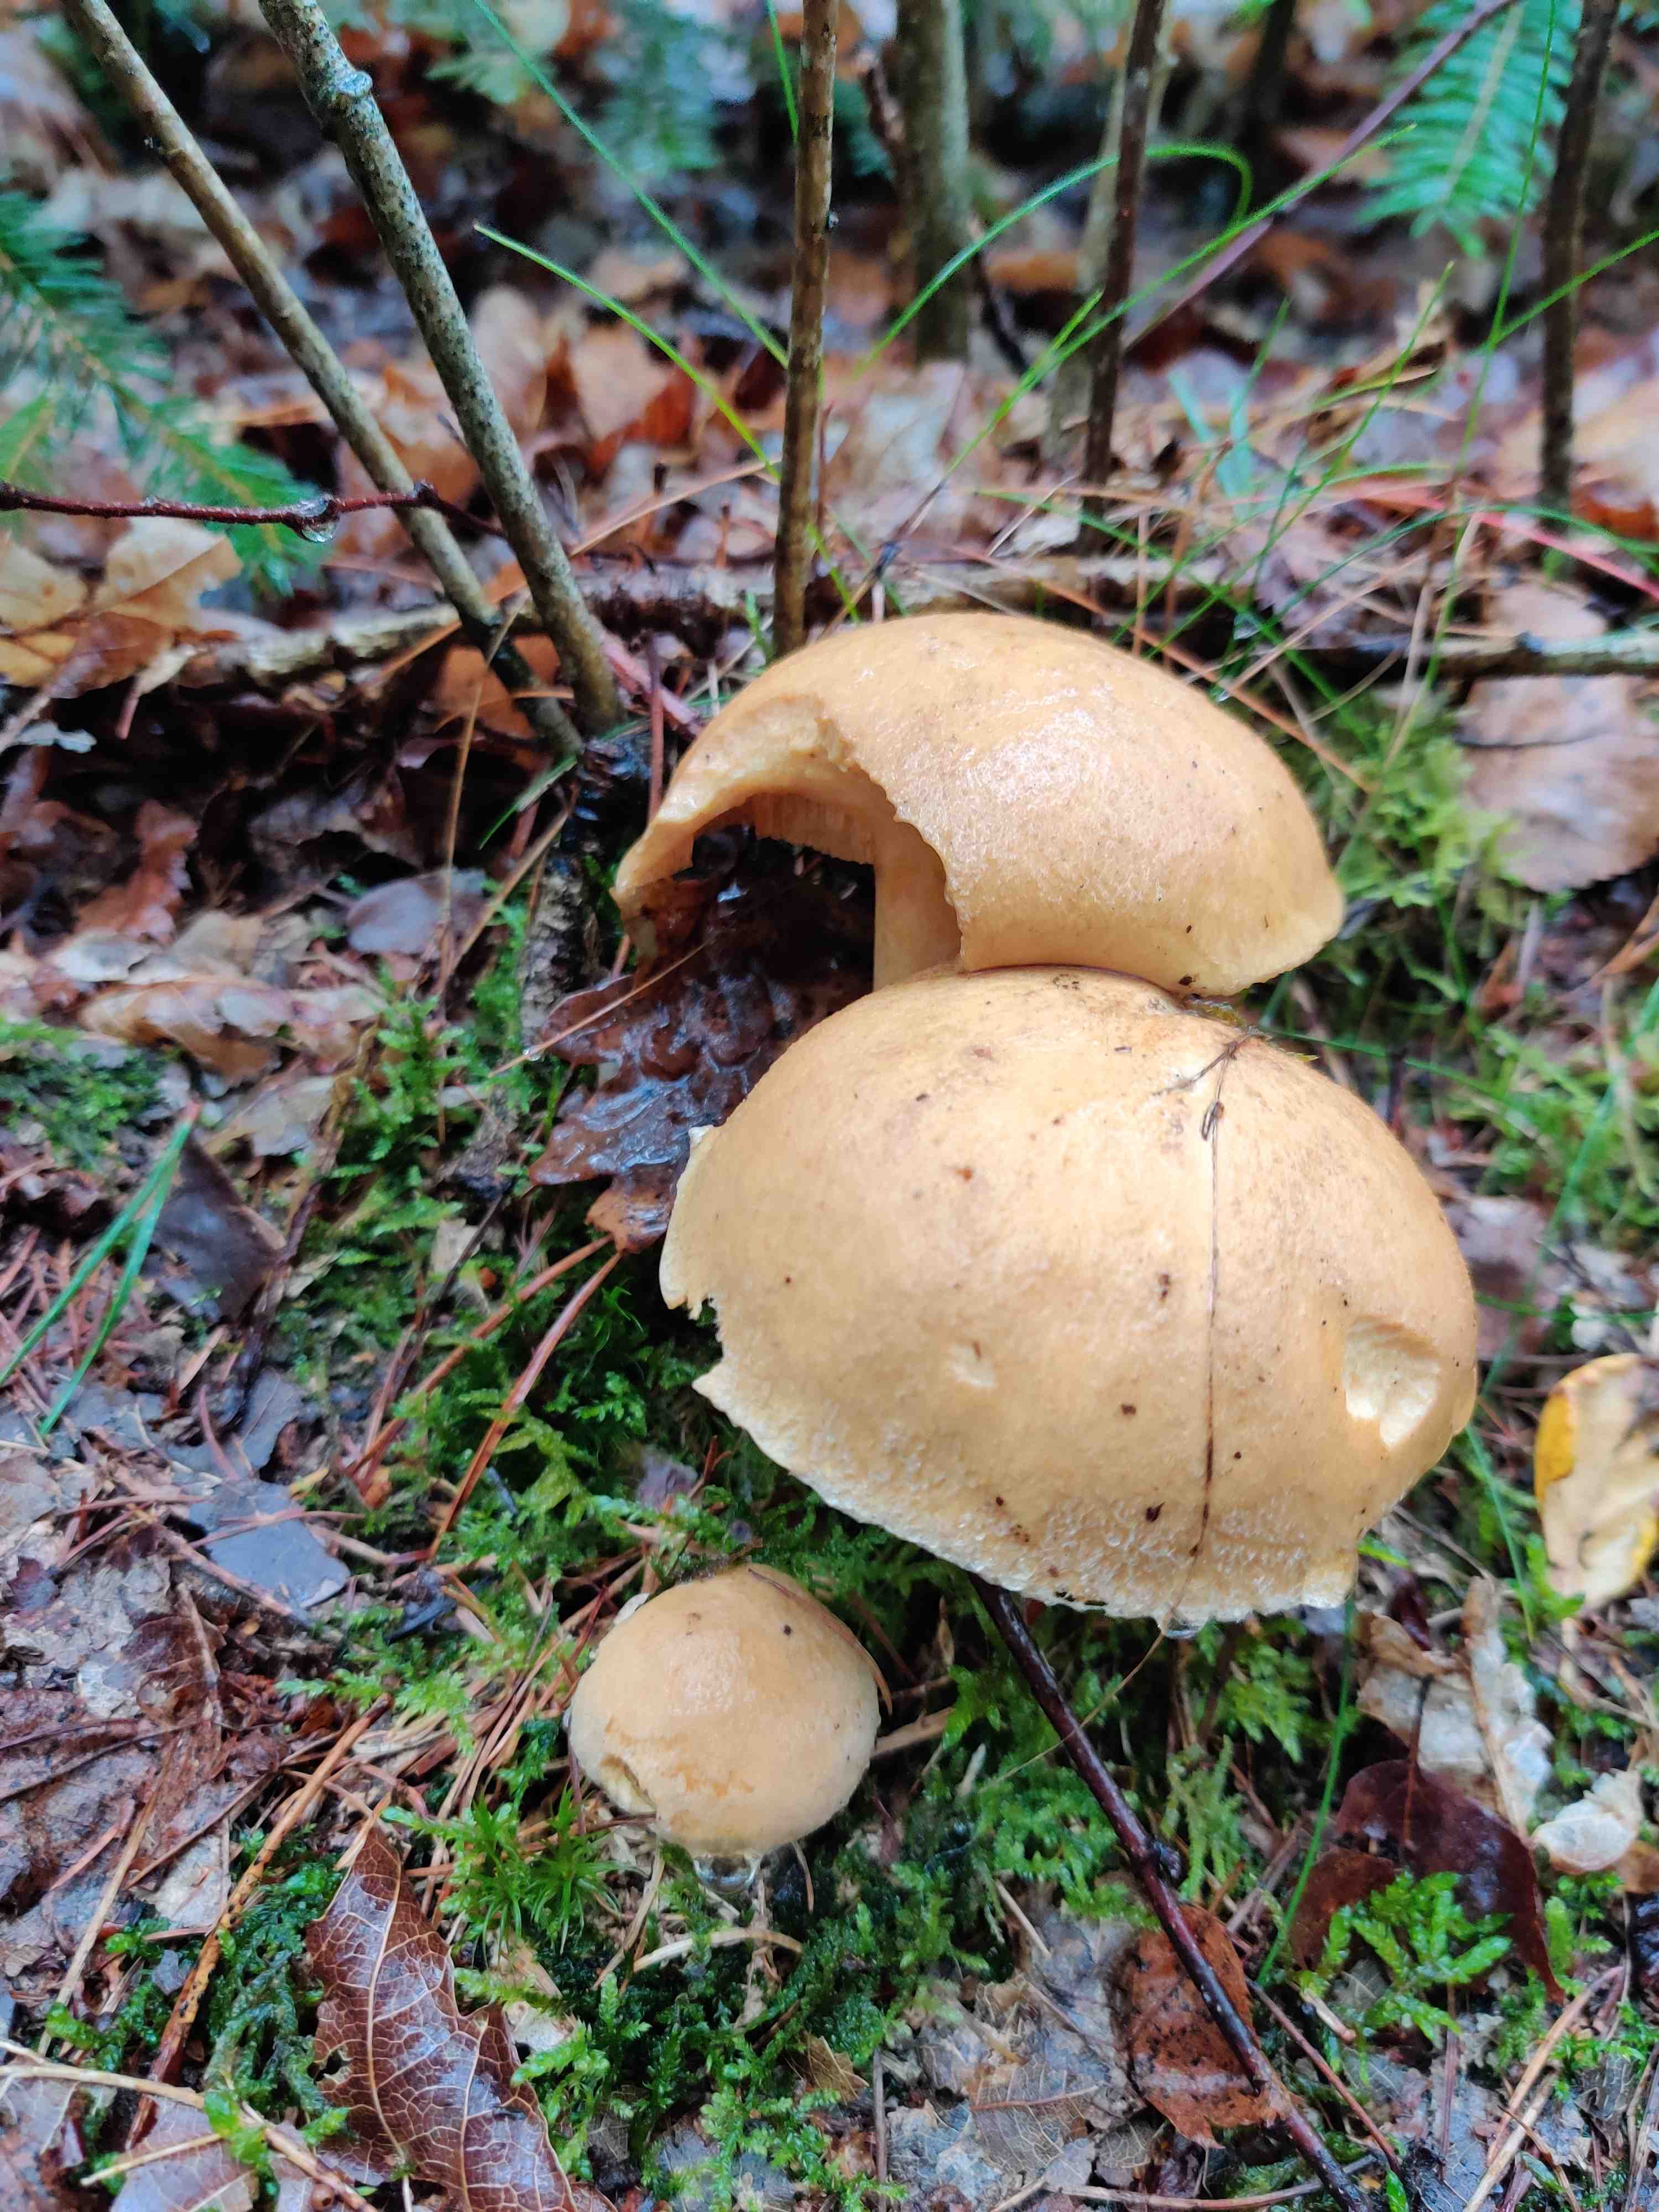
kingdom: Fungi
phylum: Basidiomycota
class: Agaricomycetes
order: Boletales
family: Suillaceae
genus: Suillus
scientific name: Suillus
